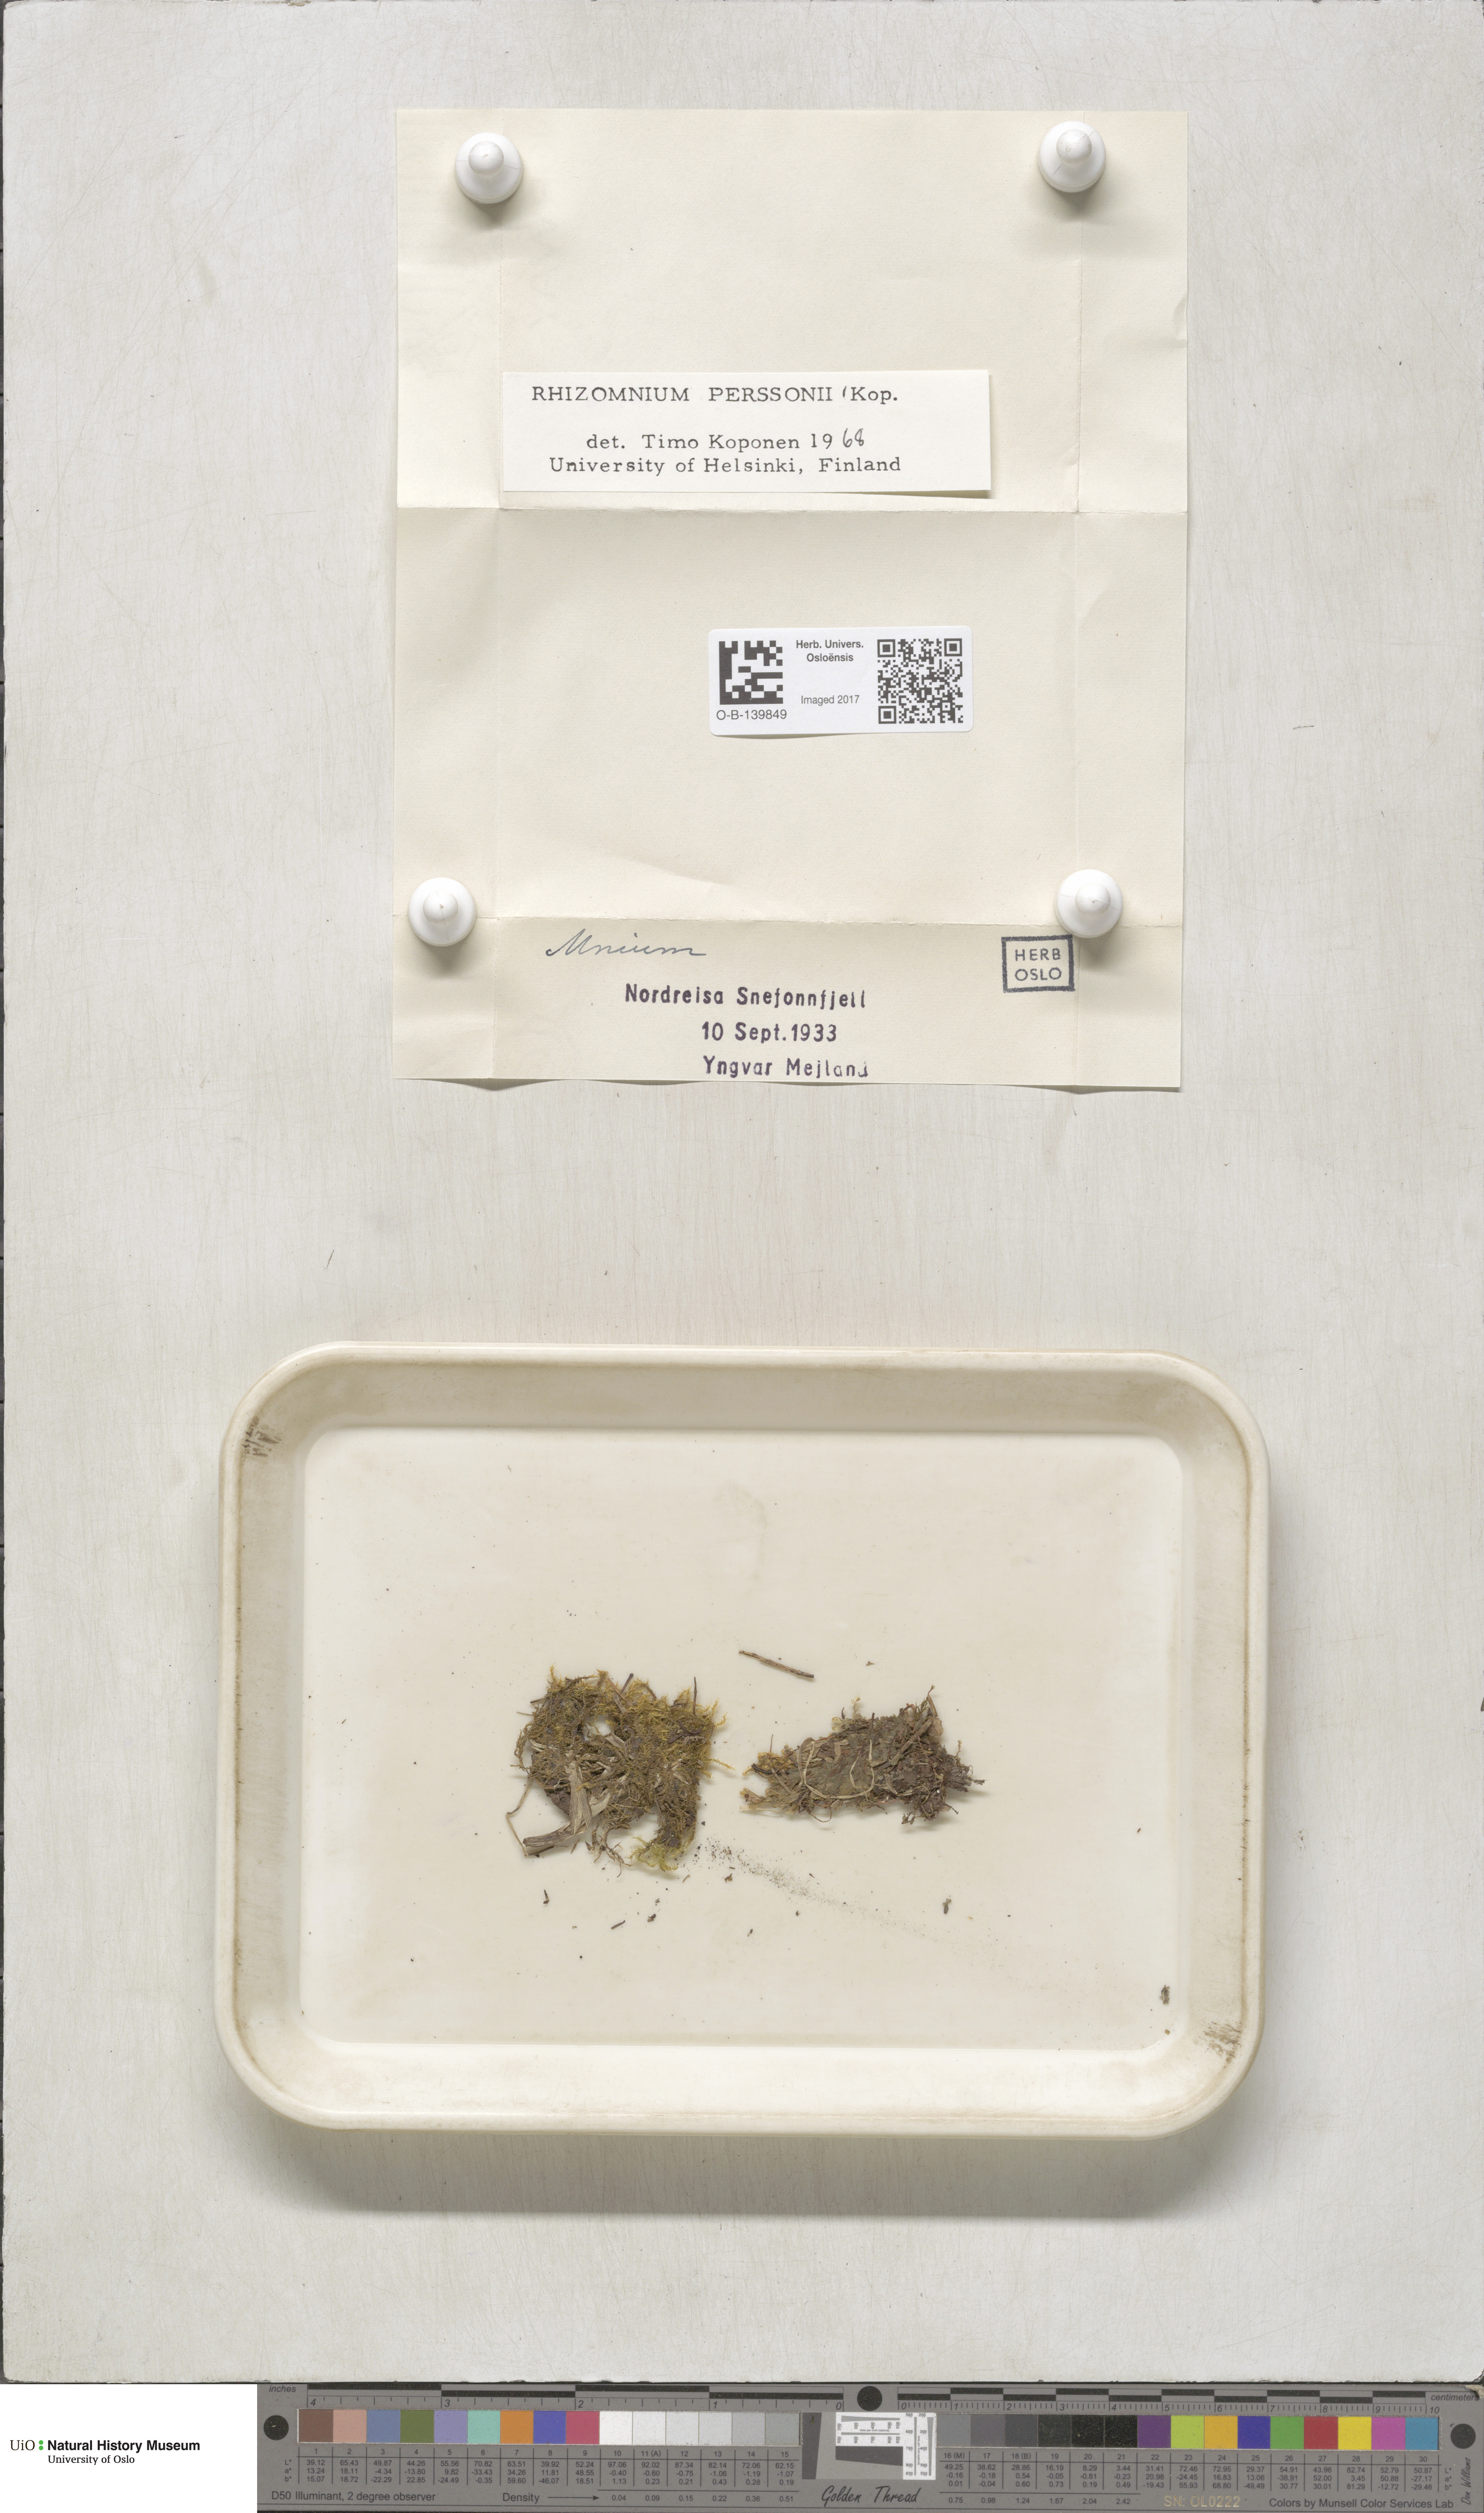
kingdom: Plantae
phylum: Bryophyta
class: Bryopsida
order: Bryales
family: Mniaceae
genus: Rhizomnium
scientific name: Rhizomnium magnifolium
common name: Large-leaved leafy moss
